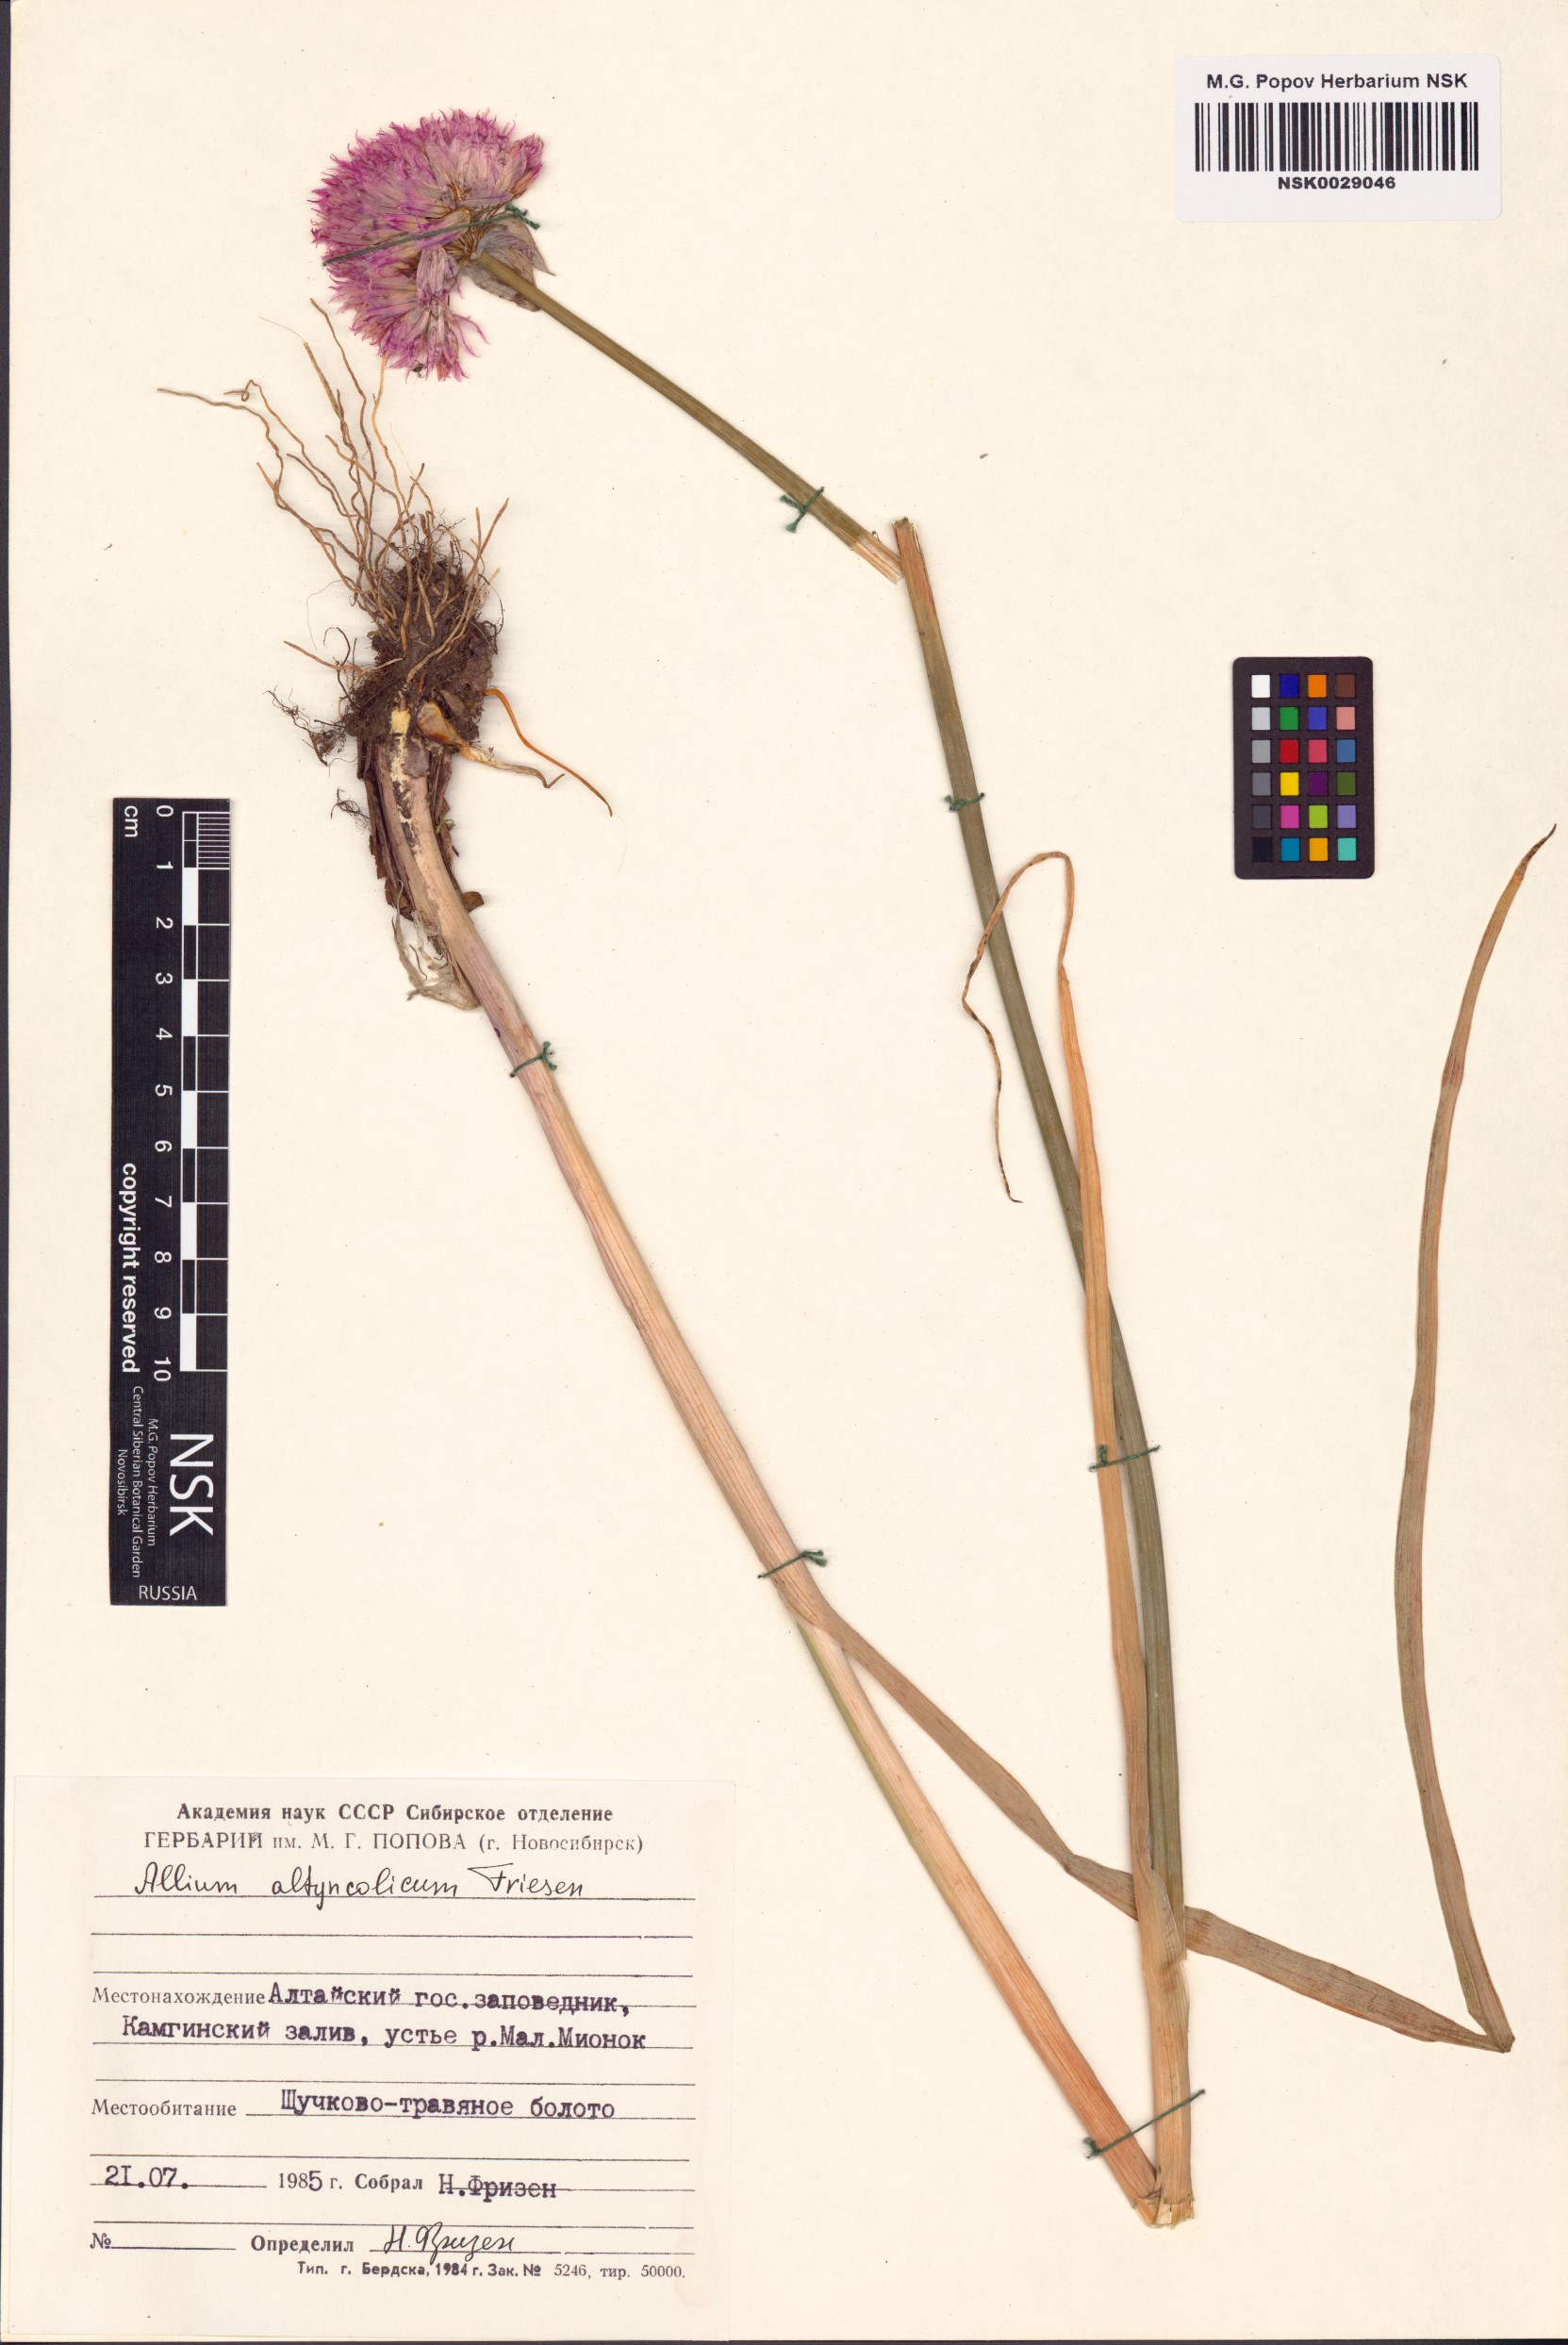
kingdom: Plantae
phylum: Tracheophyta
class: Liliopsida
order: Asparagales
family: Amaryllidaceae
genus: Allium
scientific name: Allium altyncolicum
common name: Altynkol chive
